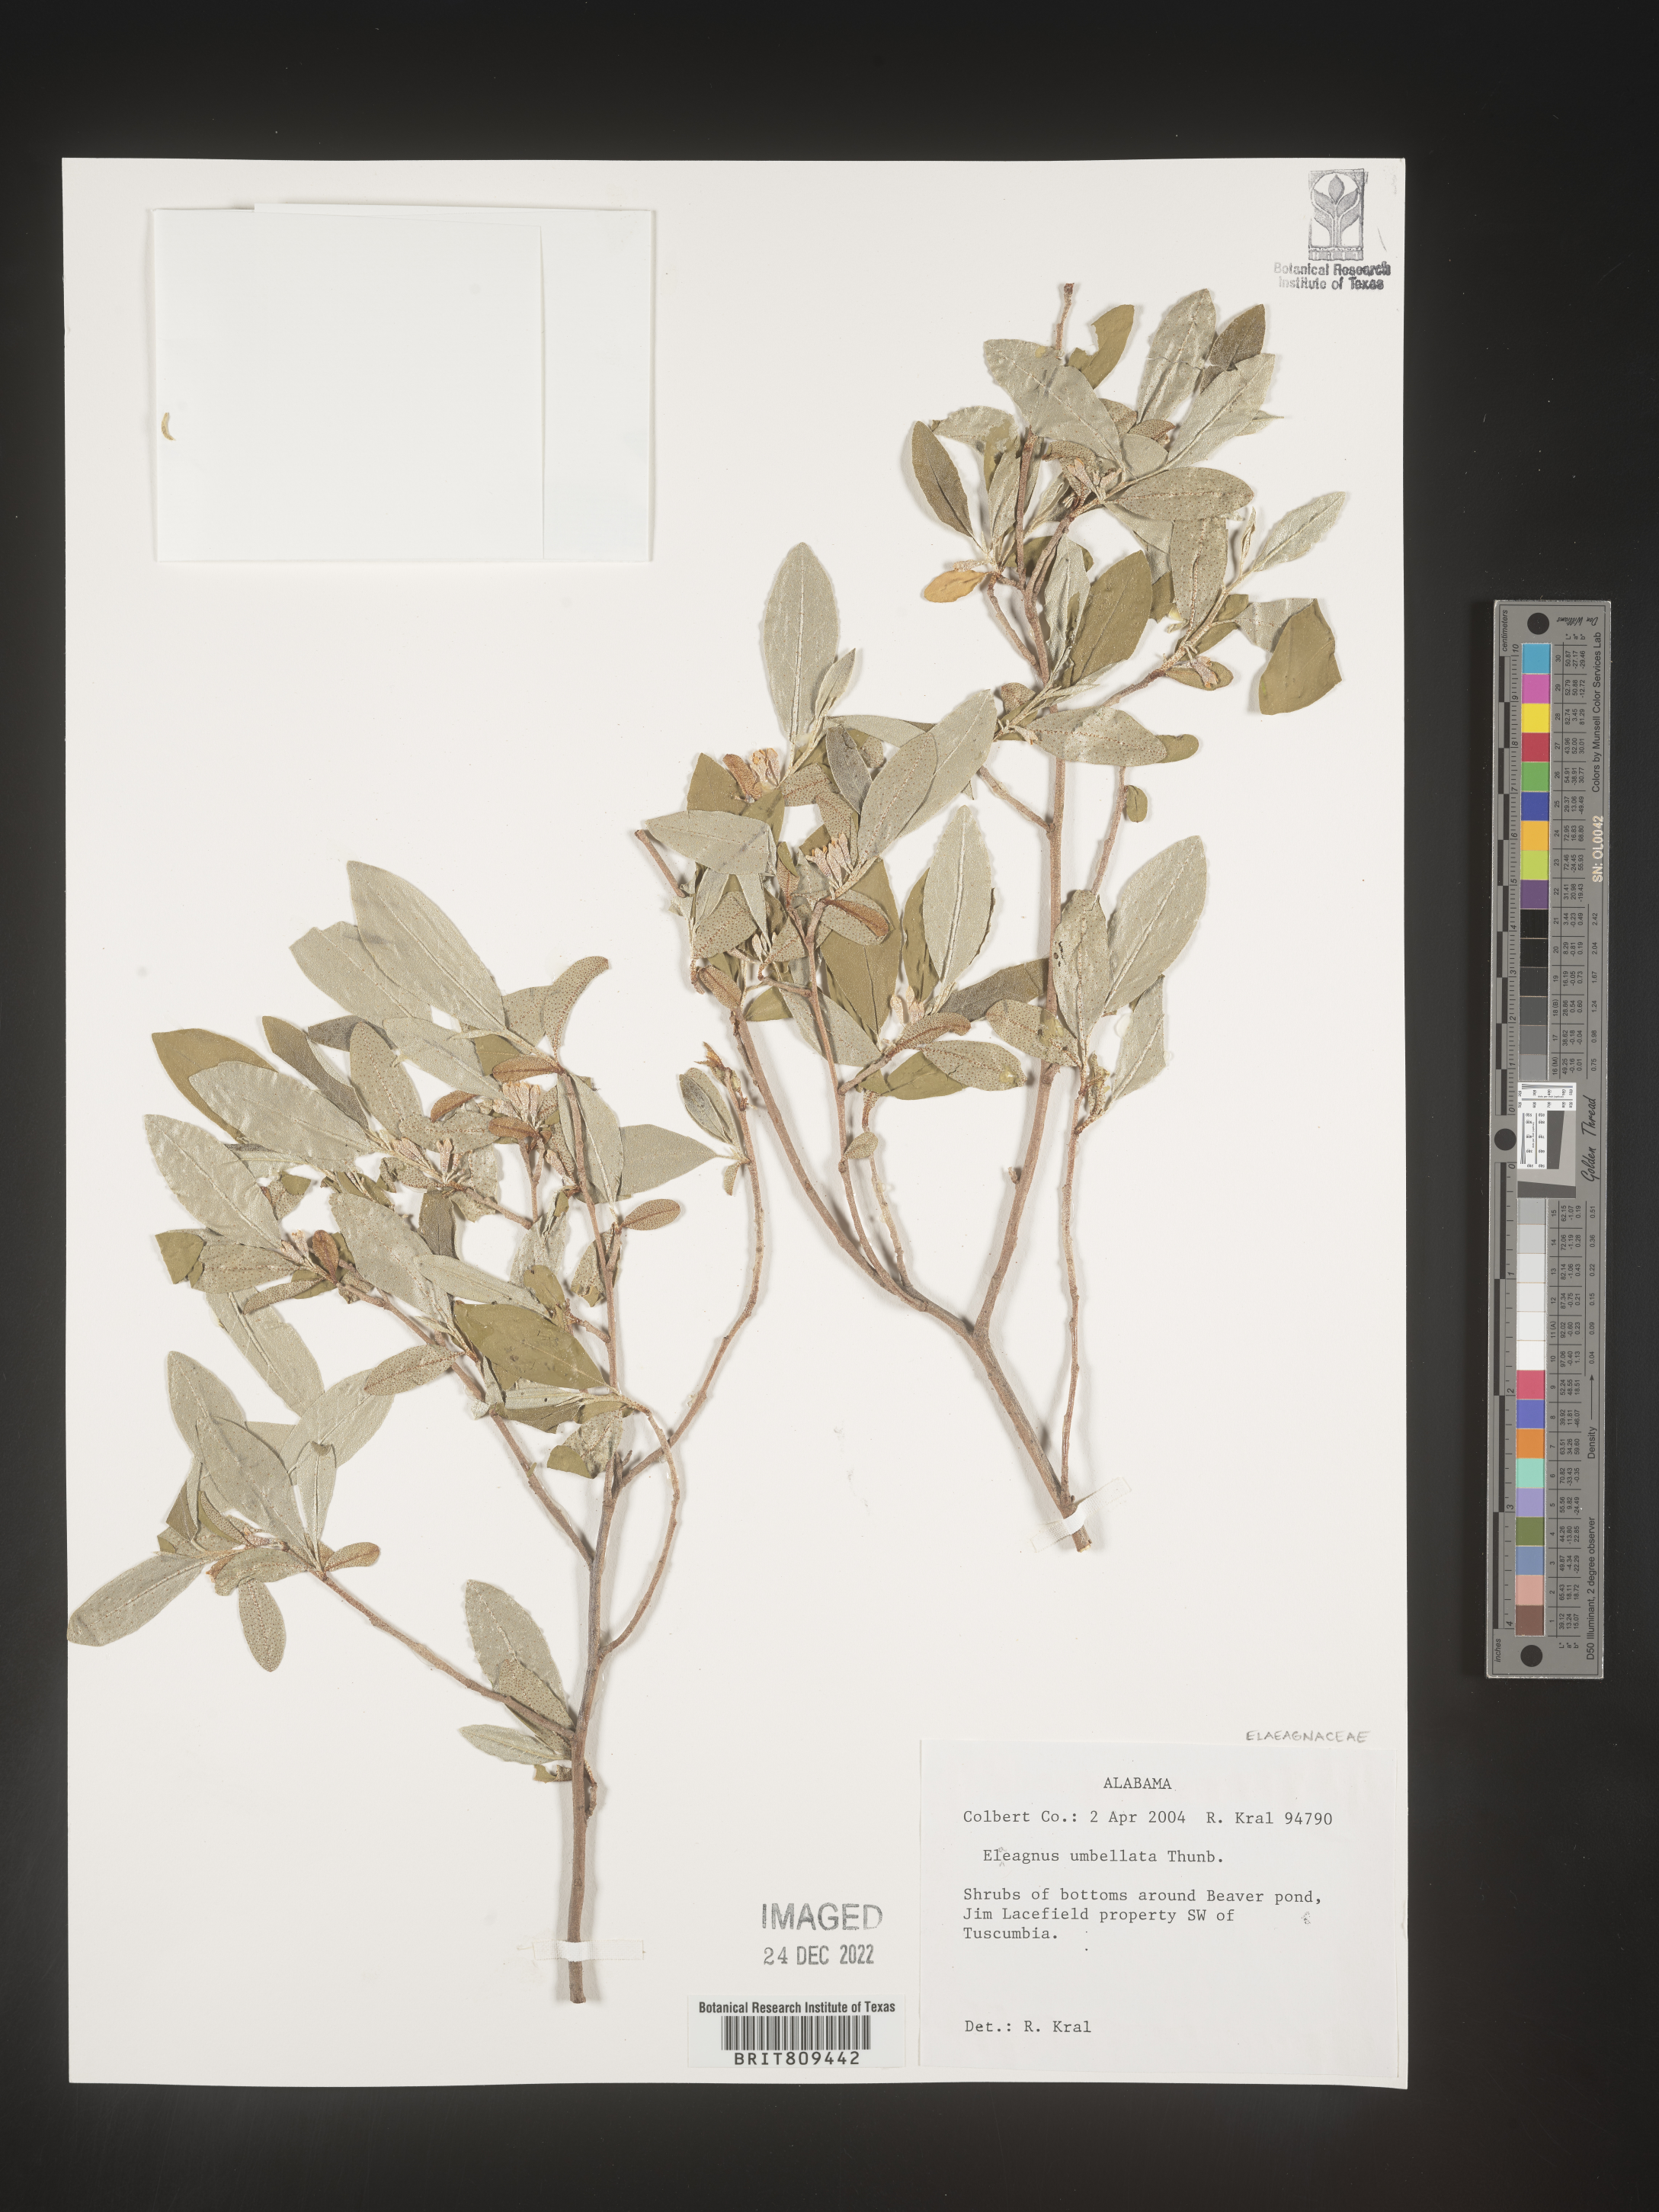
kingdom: Plantae
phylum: Tracheophyta
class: Magnoliopsida
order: Rosales
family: Elaeagnaceae
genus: Elaeagnus
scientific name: Elaeagnus
